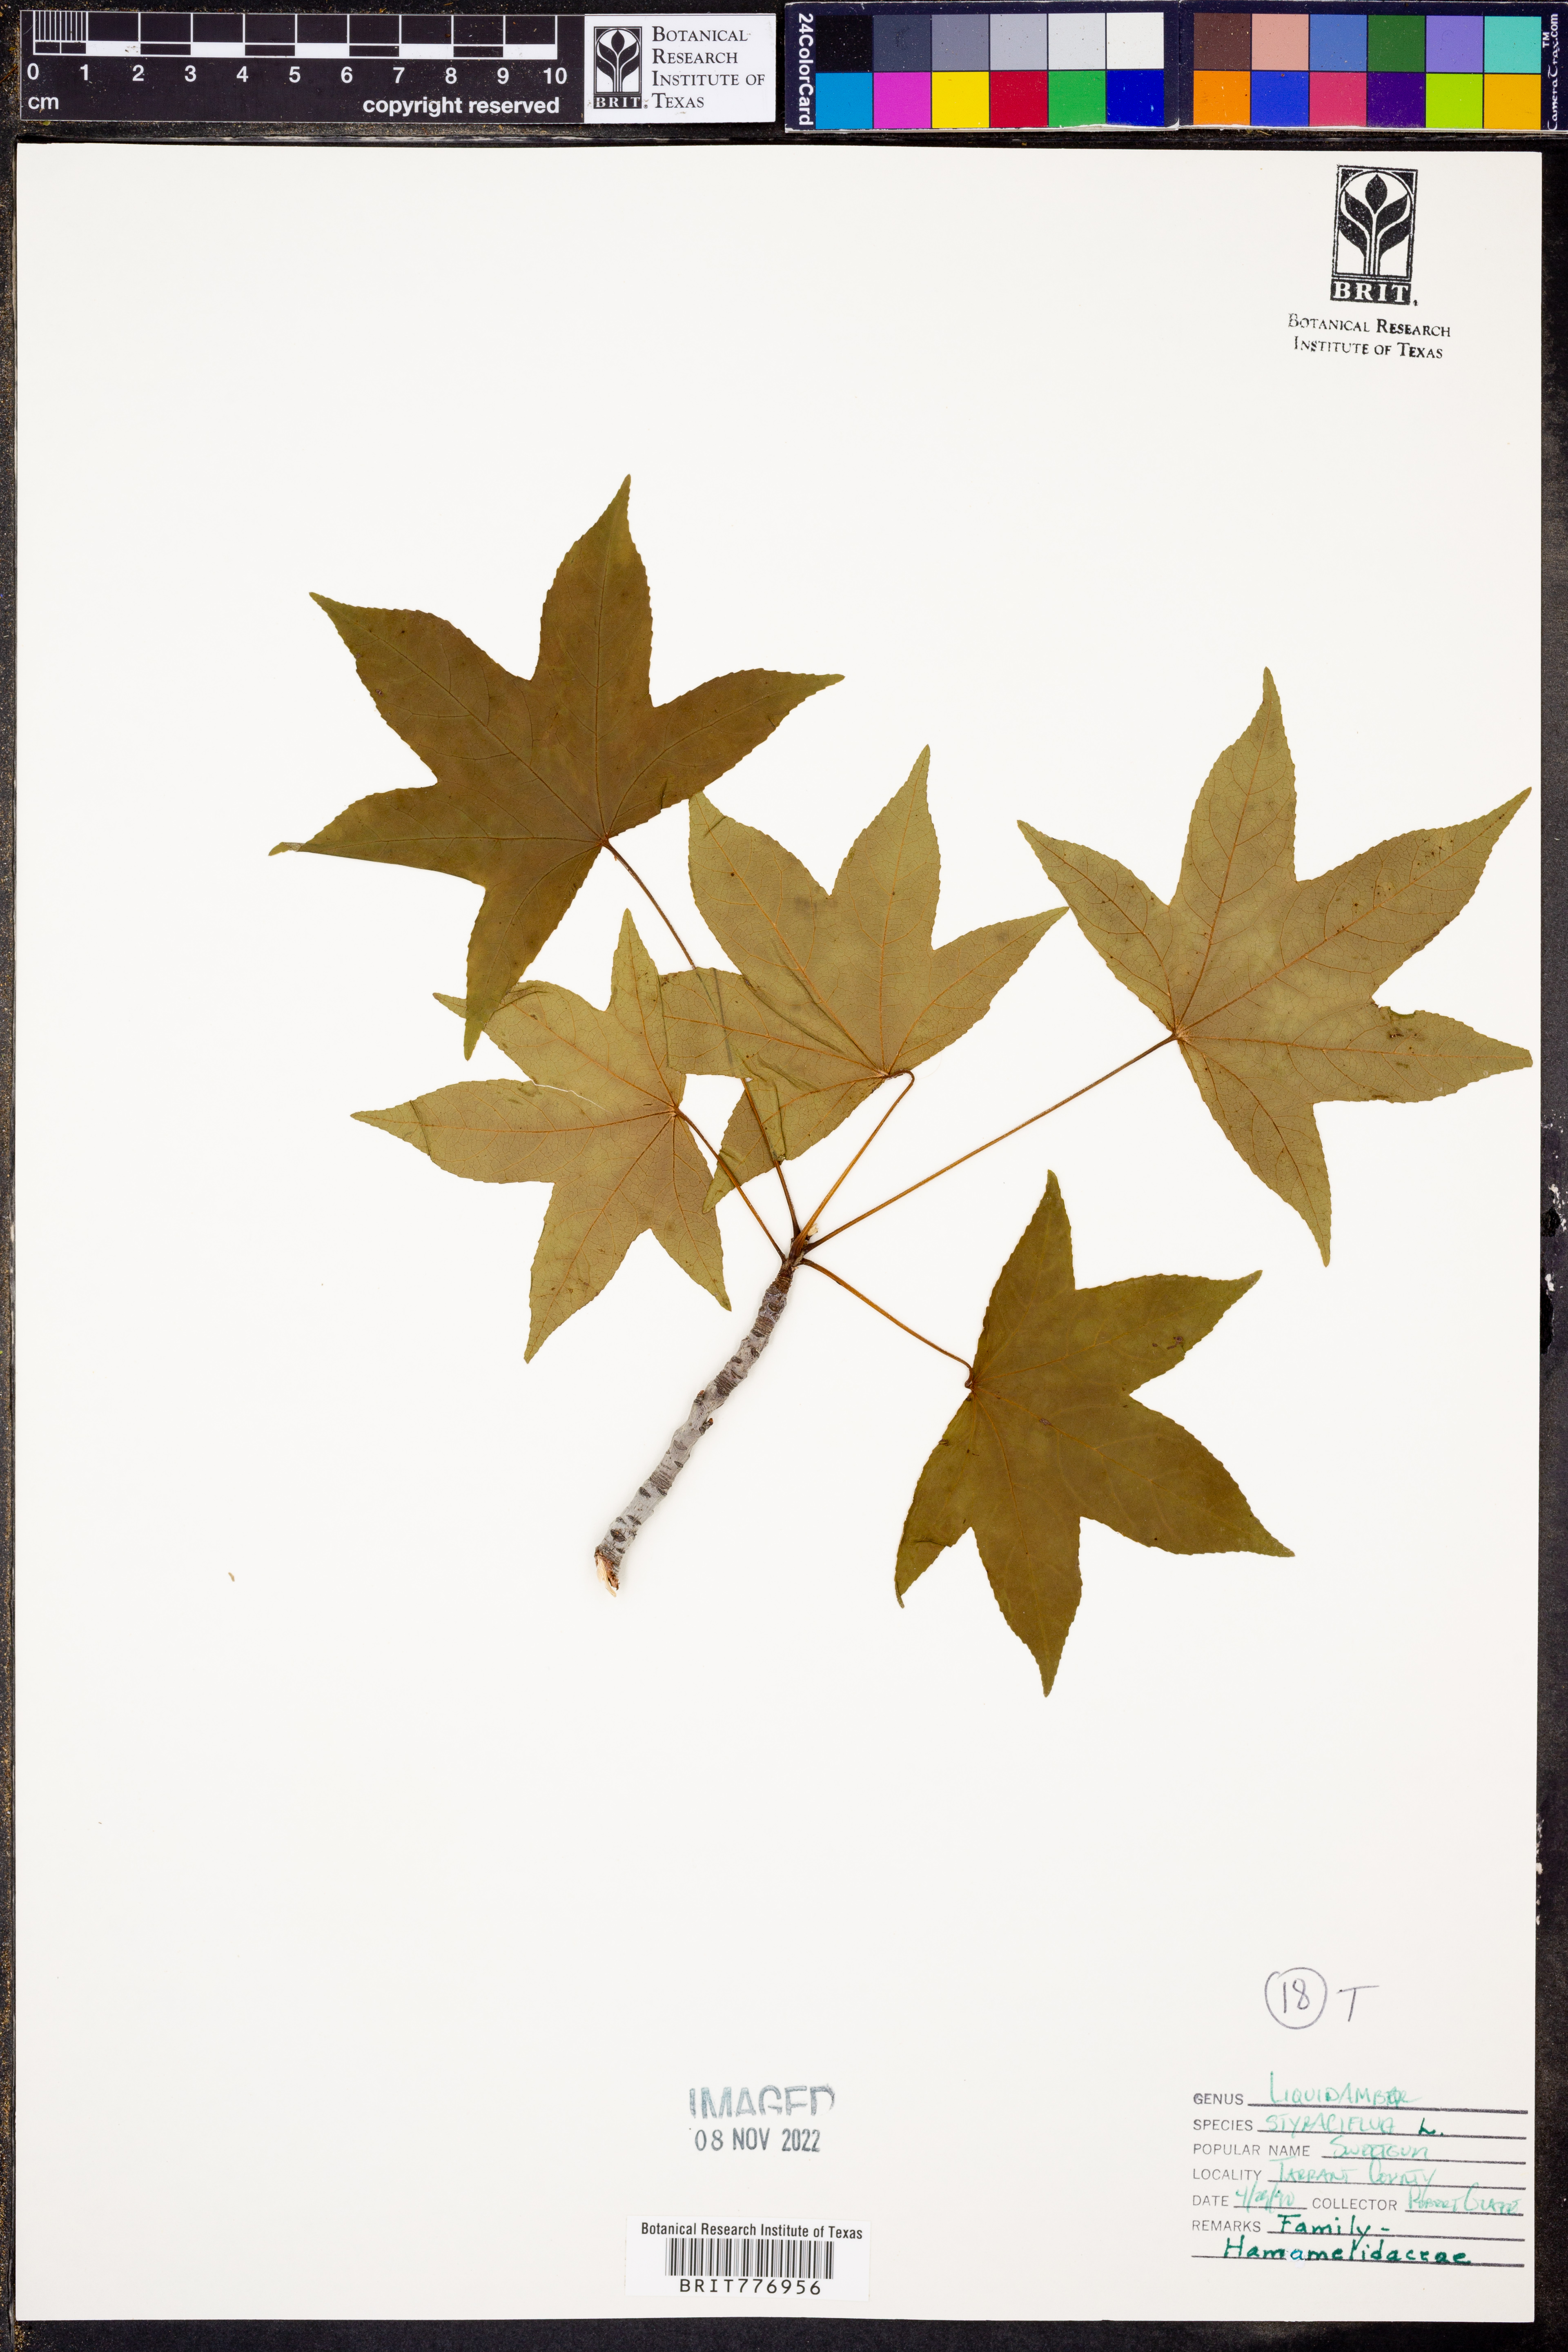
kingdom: Plantae
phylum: Tracheophyta
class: Magnoliopsida
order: Saxifragales
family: Altingiaceae
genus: Liquidambar
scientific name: Liquidambar styraciflua
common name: Sweet gum
